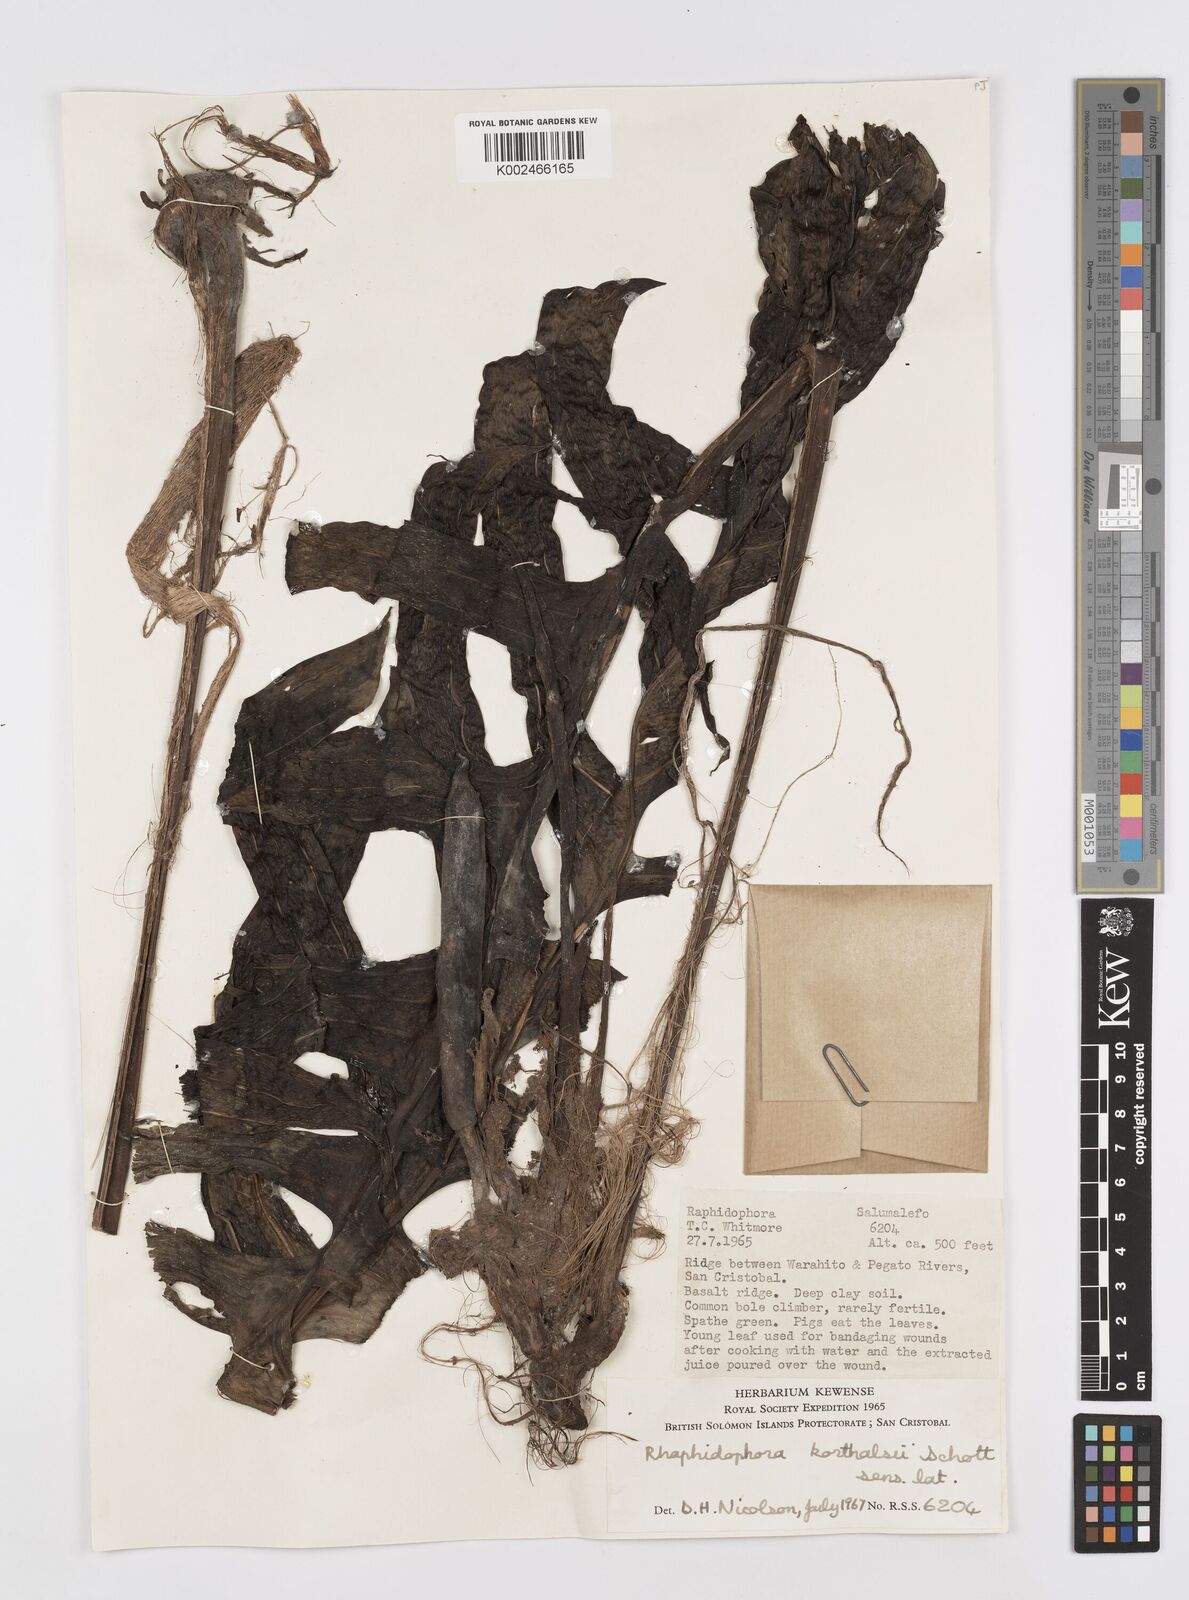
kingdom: Plantae
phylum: Tracheophyta
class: Liliopsida
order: Alismatales
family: Araceae
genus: Rhaphidophora
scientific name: Rhaphidophora korthalsii
